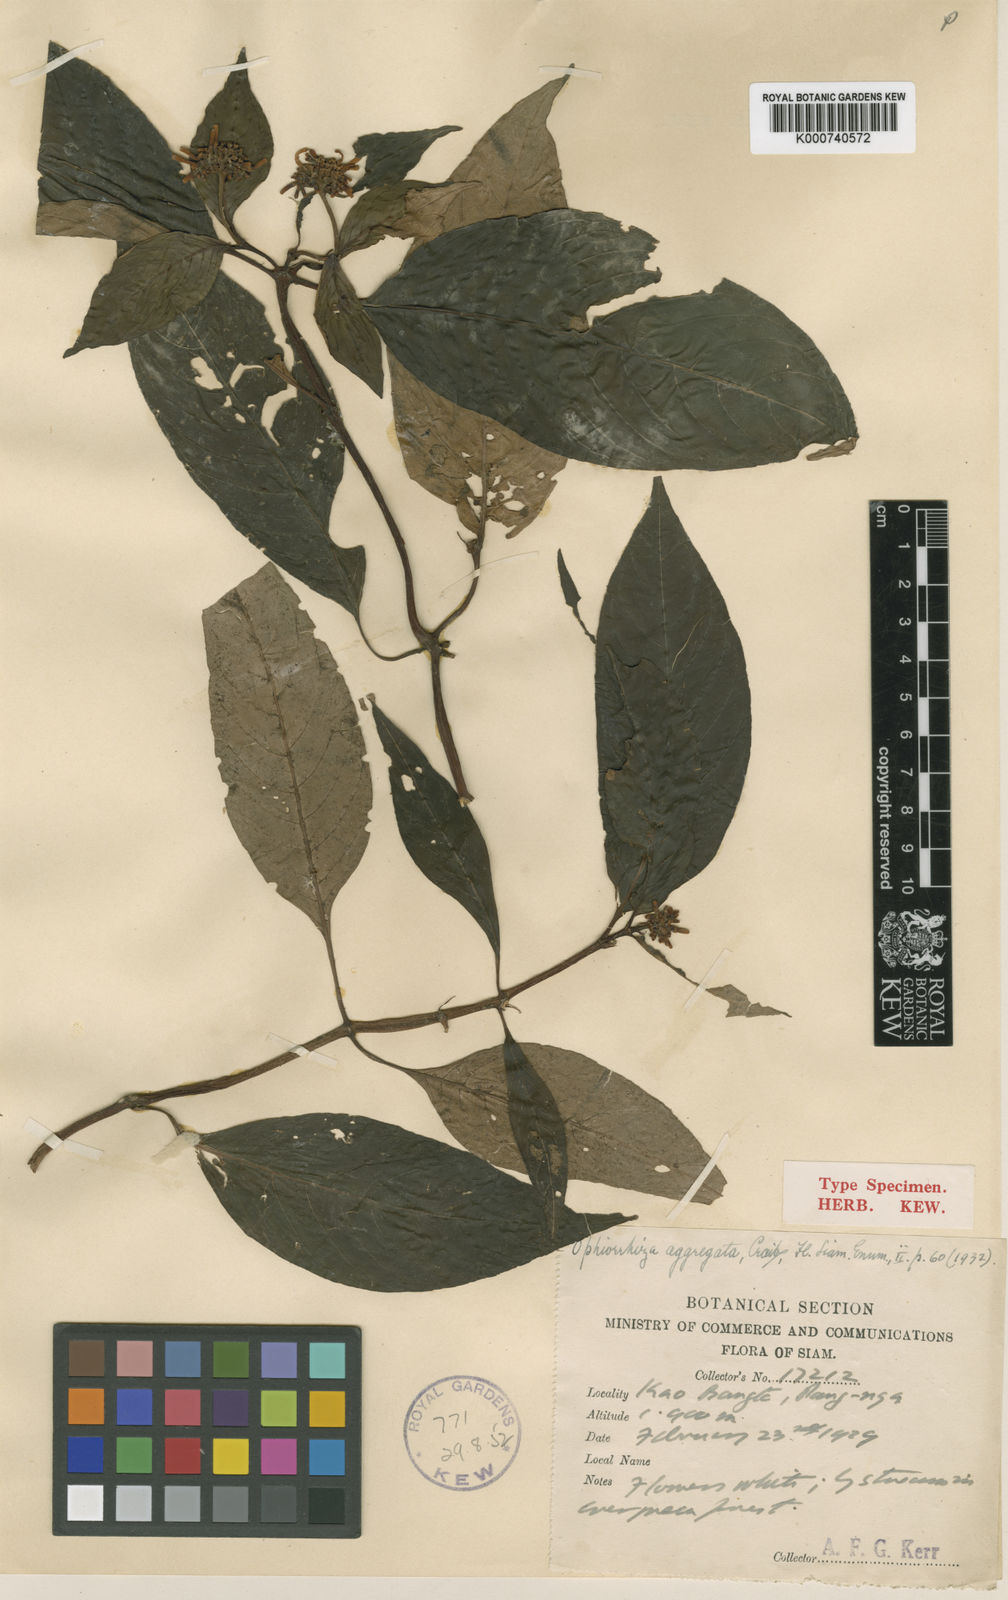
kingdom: Plantae
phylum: Tracheophyta
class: Magnoliopsida
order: Gentianales
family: Rubiaceae
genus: Ophiorrhiza
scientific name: Ophiorrhiza erubescens
